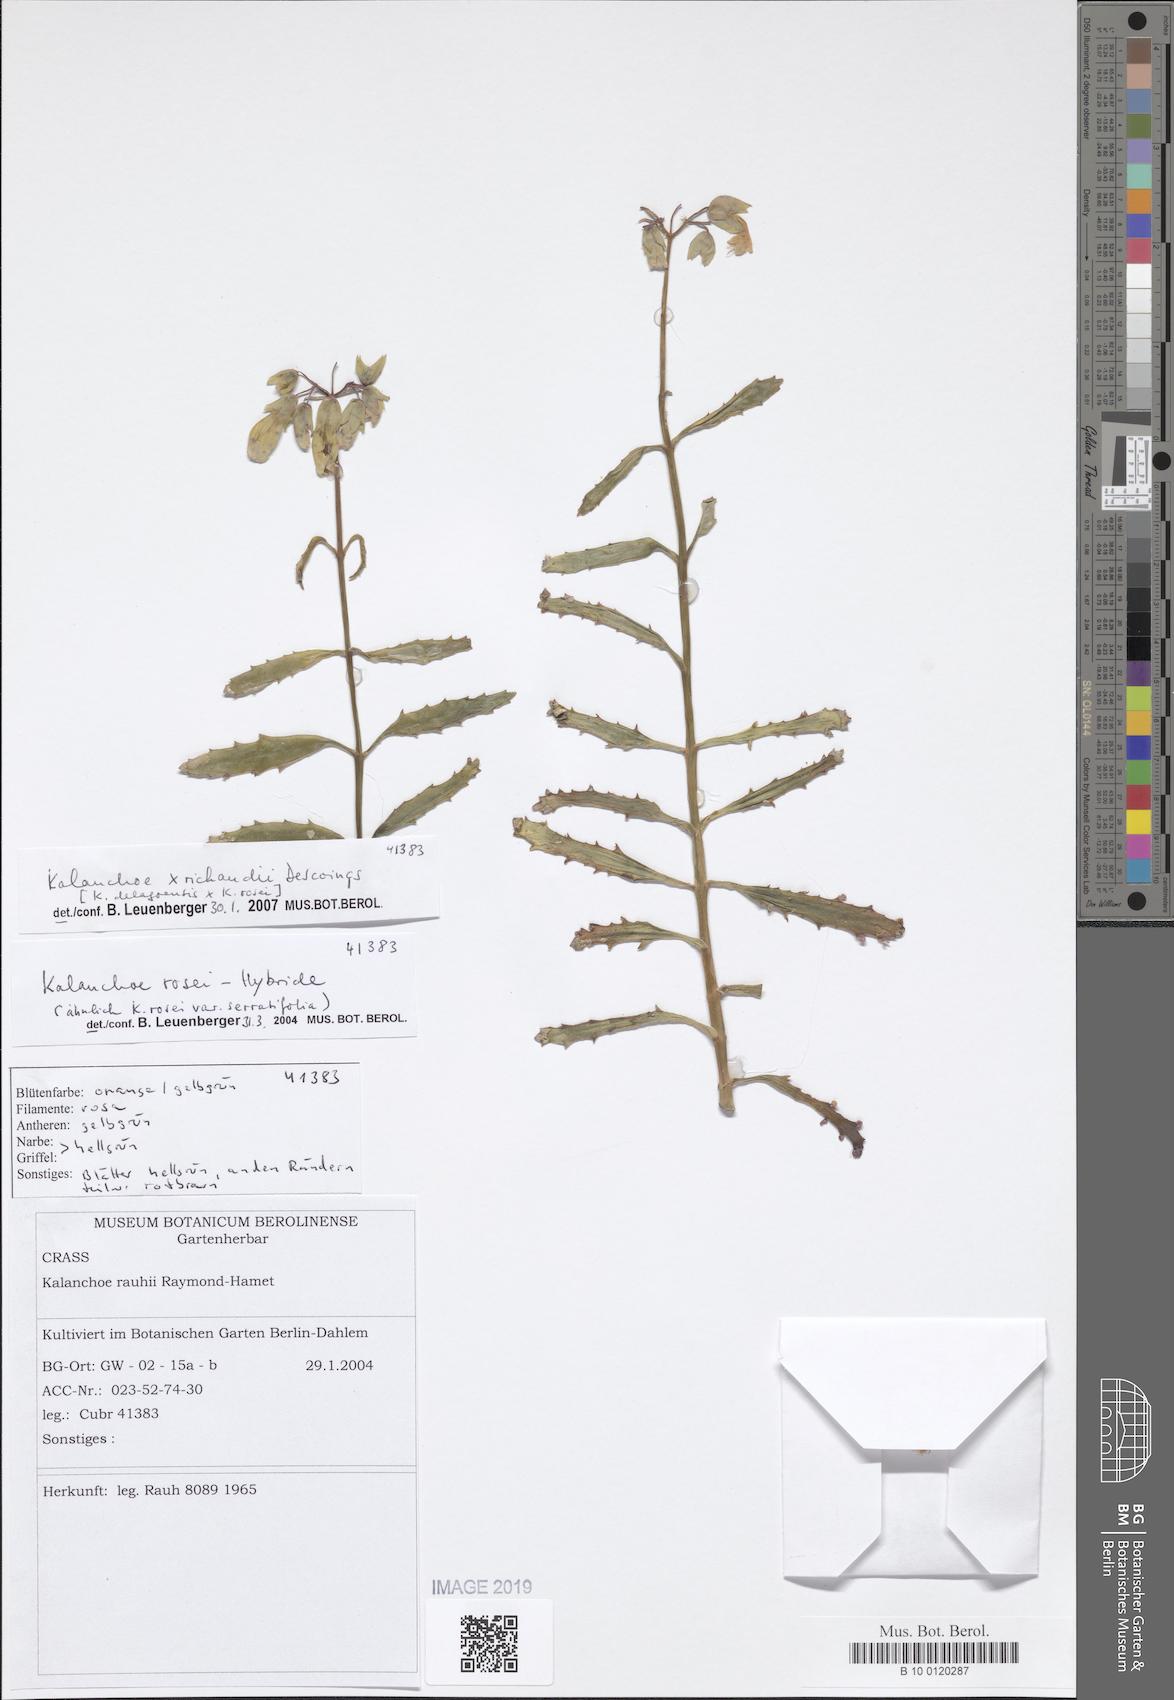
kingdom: Plantae
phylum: Tracheophyta
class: Magnoliopsida
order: Saxifragales
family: Crassulaceae
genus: Kalanchoe
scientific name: Kalanchoe richaudii
